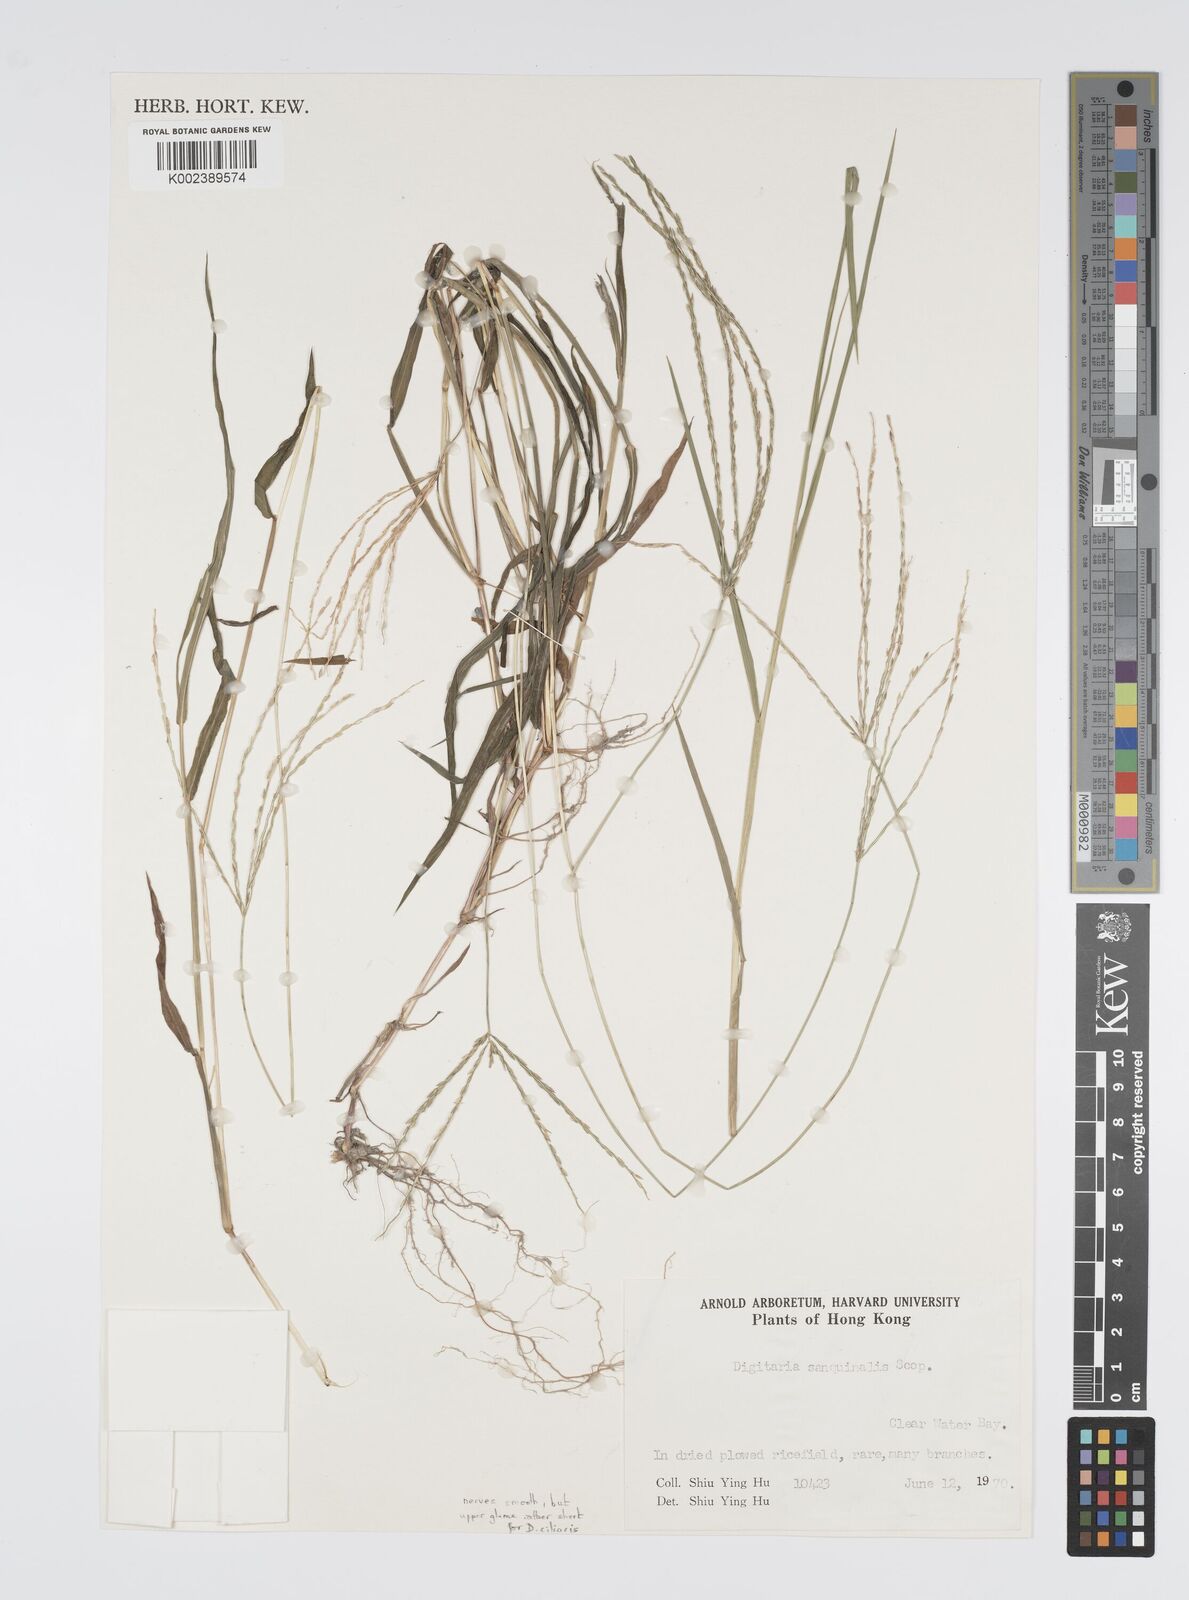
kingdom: Plantae
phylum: Tracheophyta
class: Liliopsida
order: Poales
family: Poaceae
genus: Digitaria
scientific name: Digitaria ciliaris
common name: Tropical finger-grass
